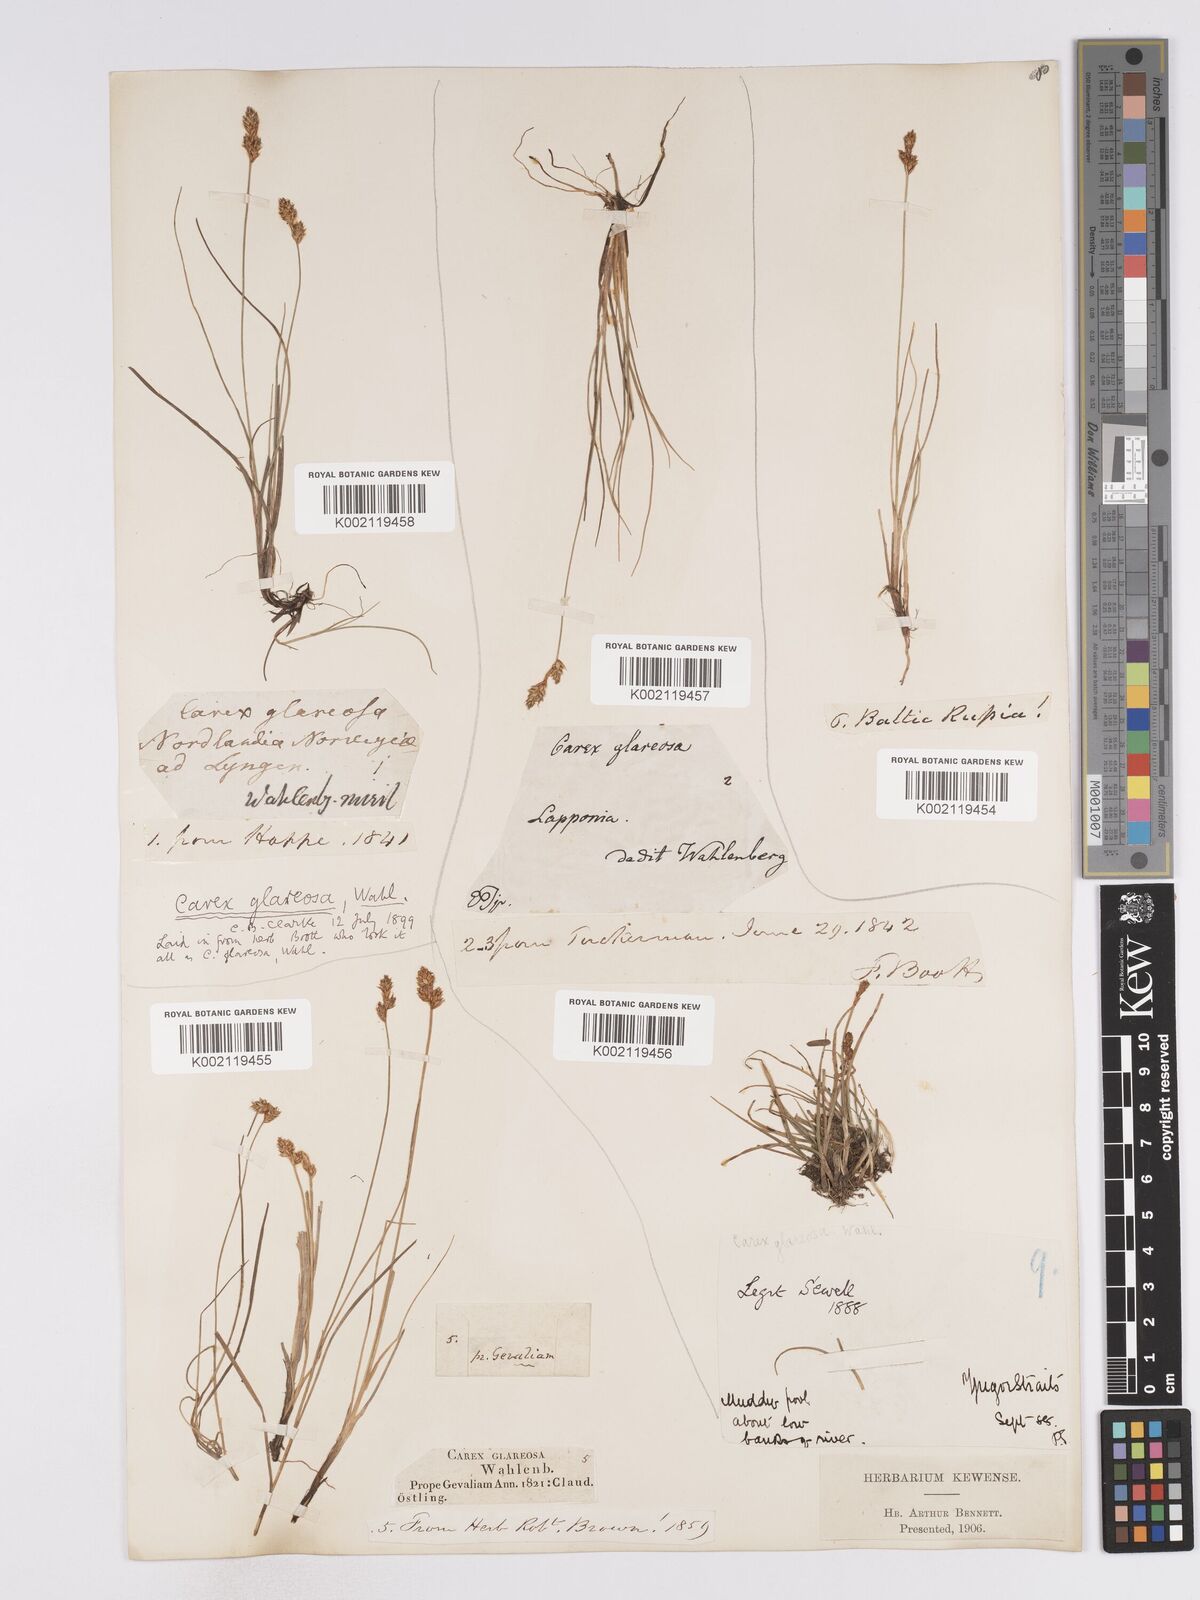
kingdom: Plantae
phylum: Tracheophyta
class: Liliopsida
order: Poales
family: Cyperaceae
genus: Carex
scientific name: Carex glareosa
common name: Clustered sedge
